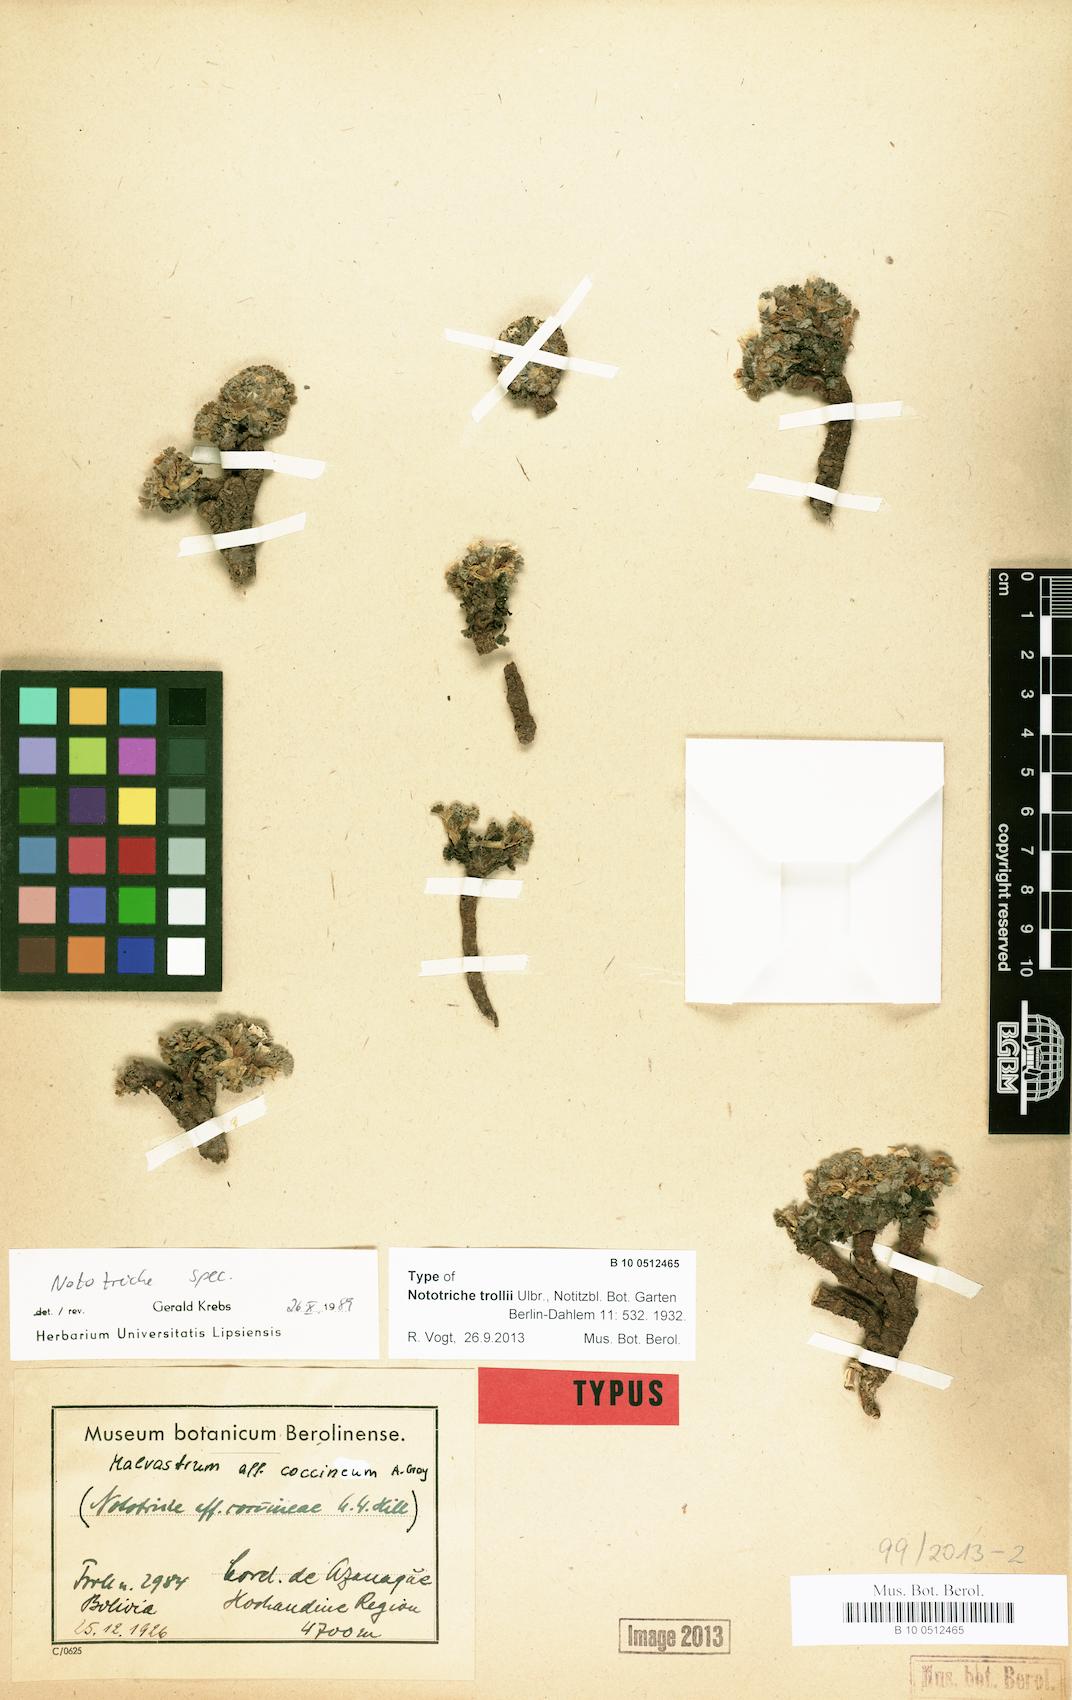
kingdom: Plantae
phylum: Tracheophyta
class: Magnoliopsida
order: Malvales
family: Malvaceae
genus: Nototriche
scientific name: Nototriche trollii
